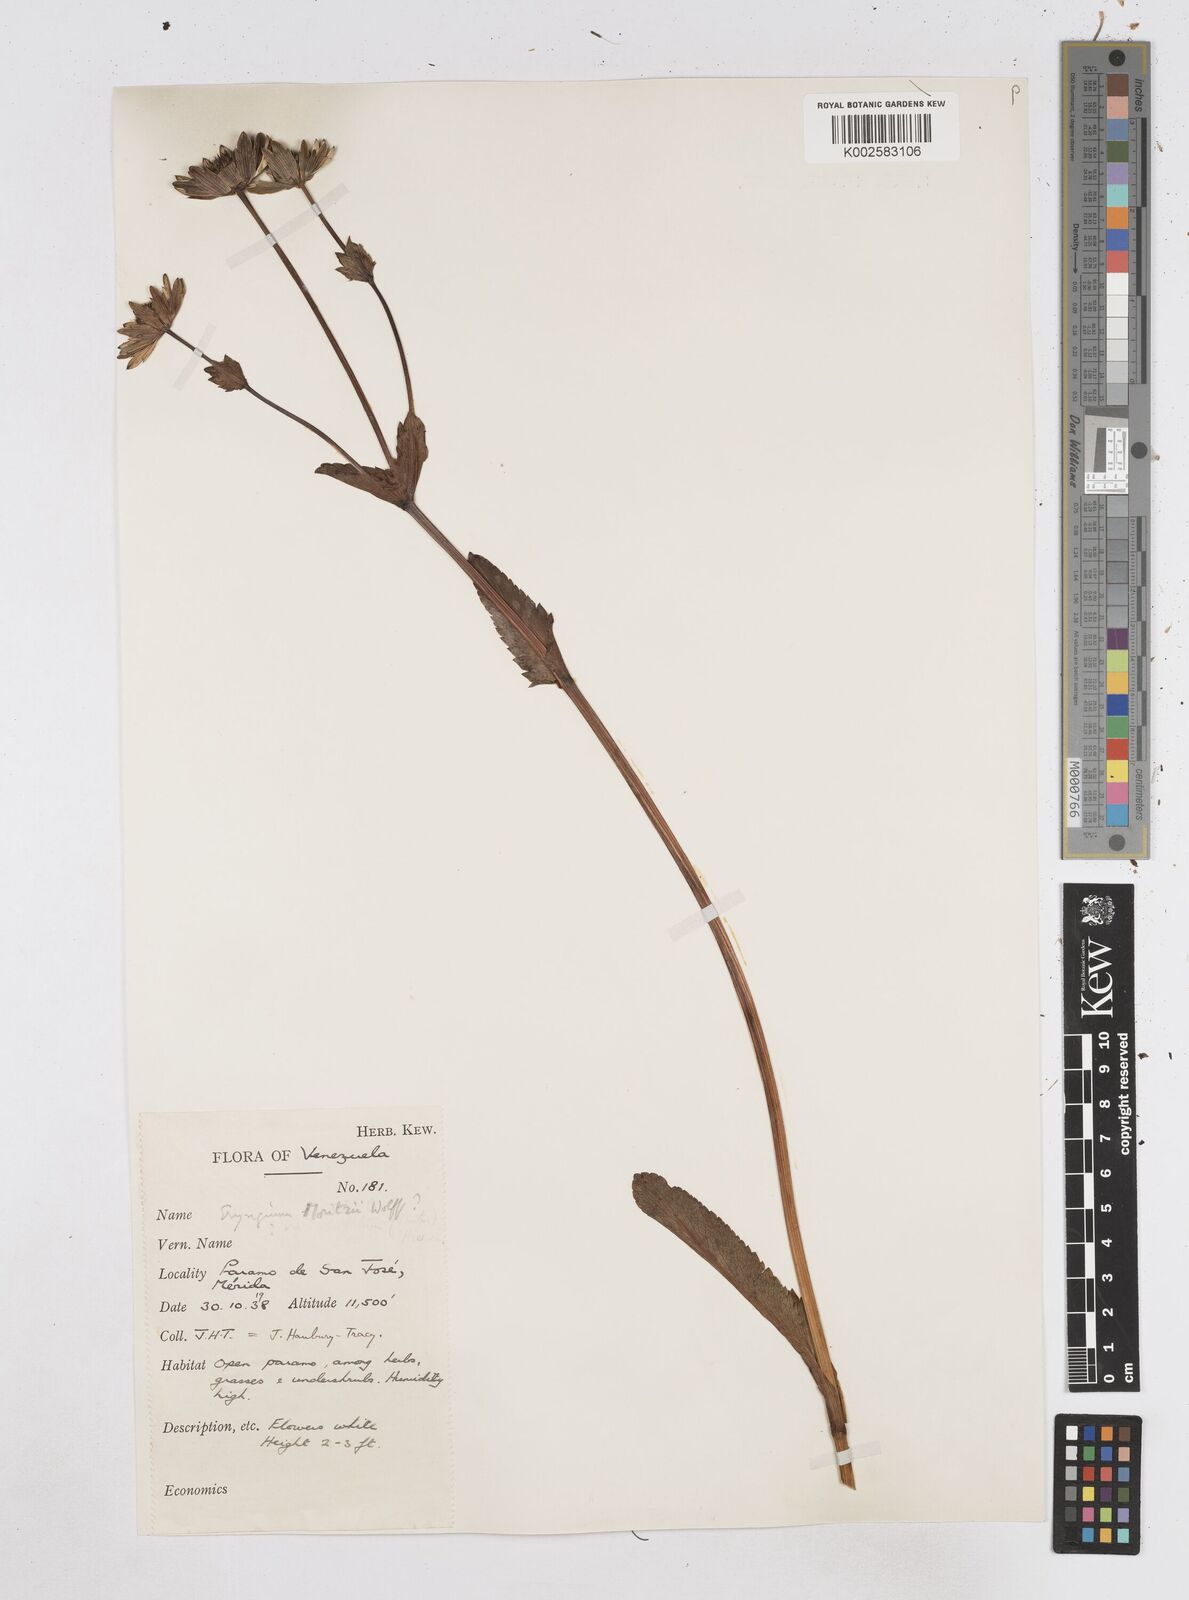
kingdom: Plantae
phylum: Tracheophyta
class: Magnoliopsida
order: Apiales
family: Apiaceae
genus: Eryngium
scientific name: Eryngium humile
